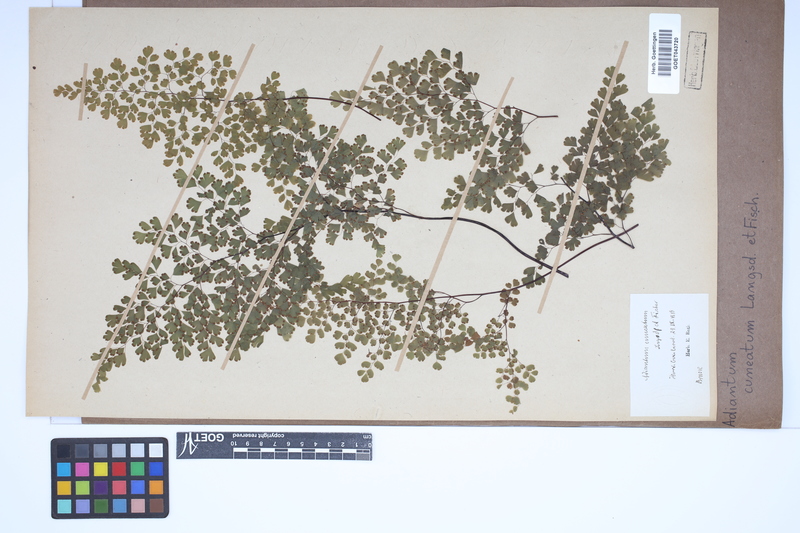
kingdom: Plantae
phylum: Tracheophyta
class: Polypodiopsida
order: Polypodiales
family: Pteridaceae
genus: Adiantum
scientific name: Adiantum raddianum
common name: Delta maidenhair fern
